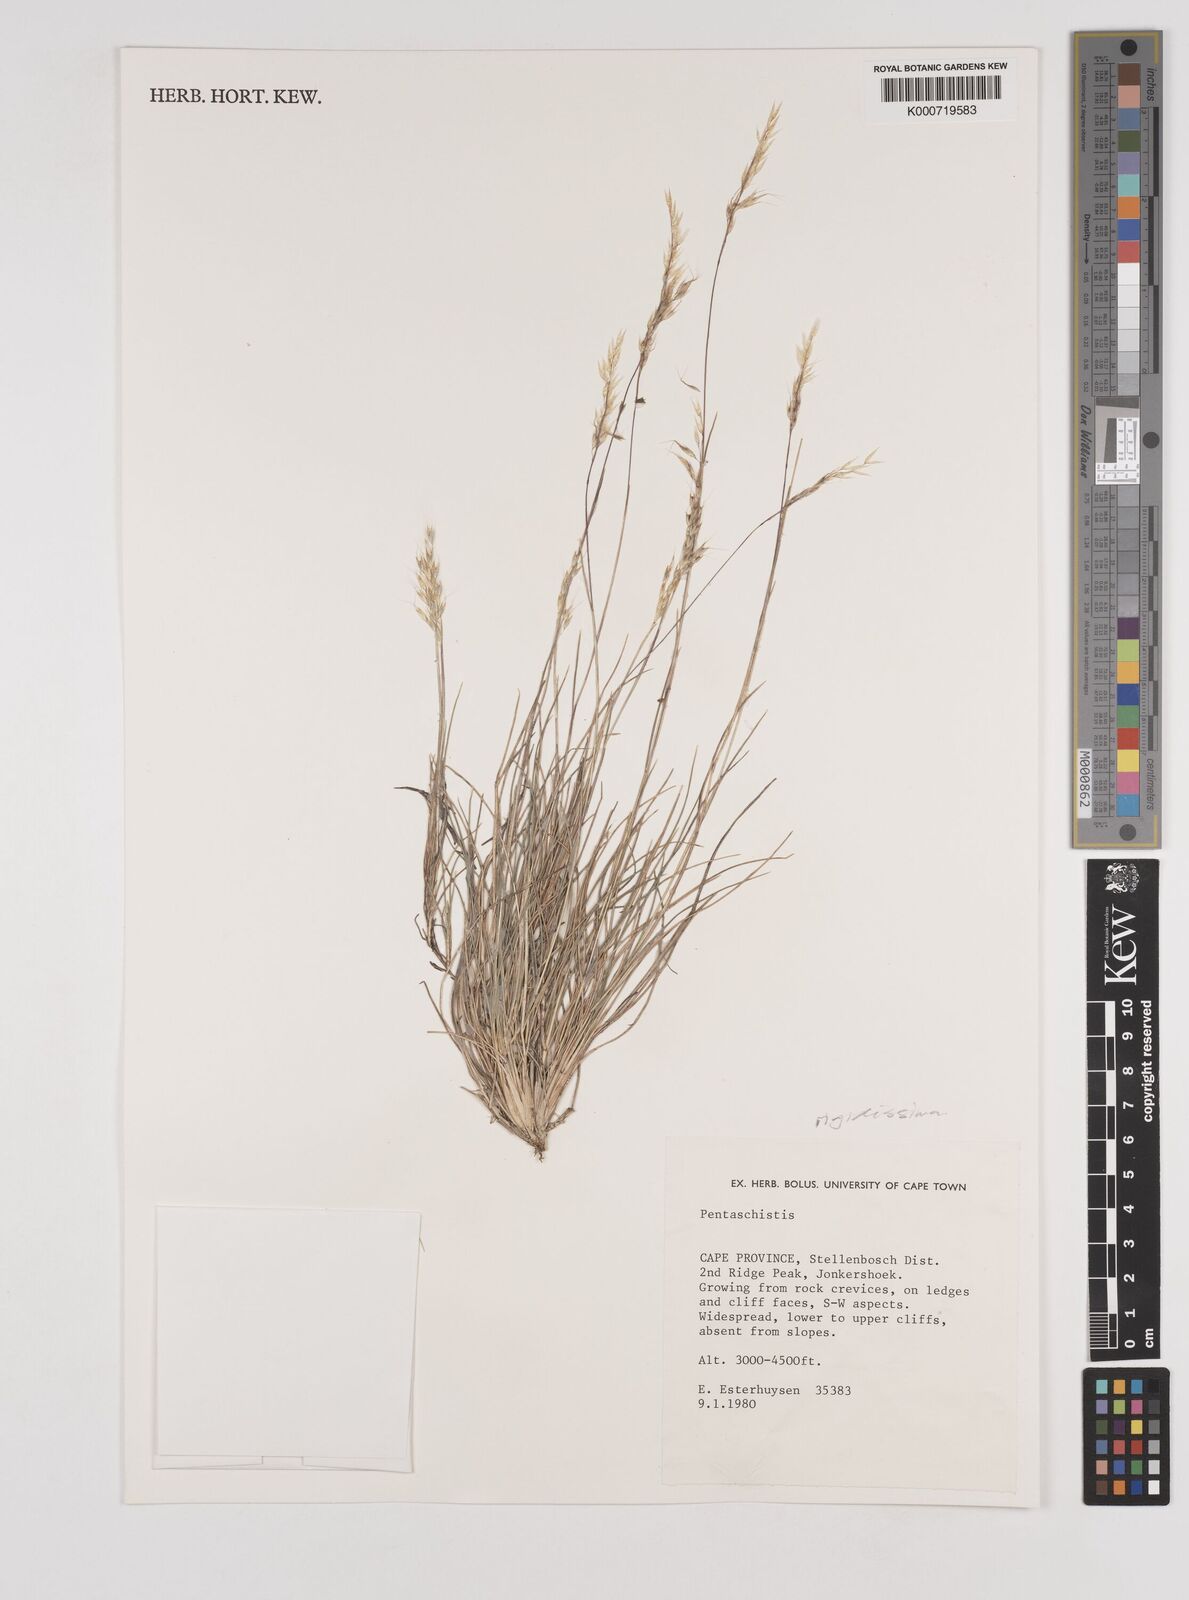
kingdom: Plantae
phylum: Tracheophyta
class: Liliopsida
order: Poales
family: Poaceae
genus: Pentameris
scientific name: Pentameris rigidissima
